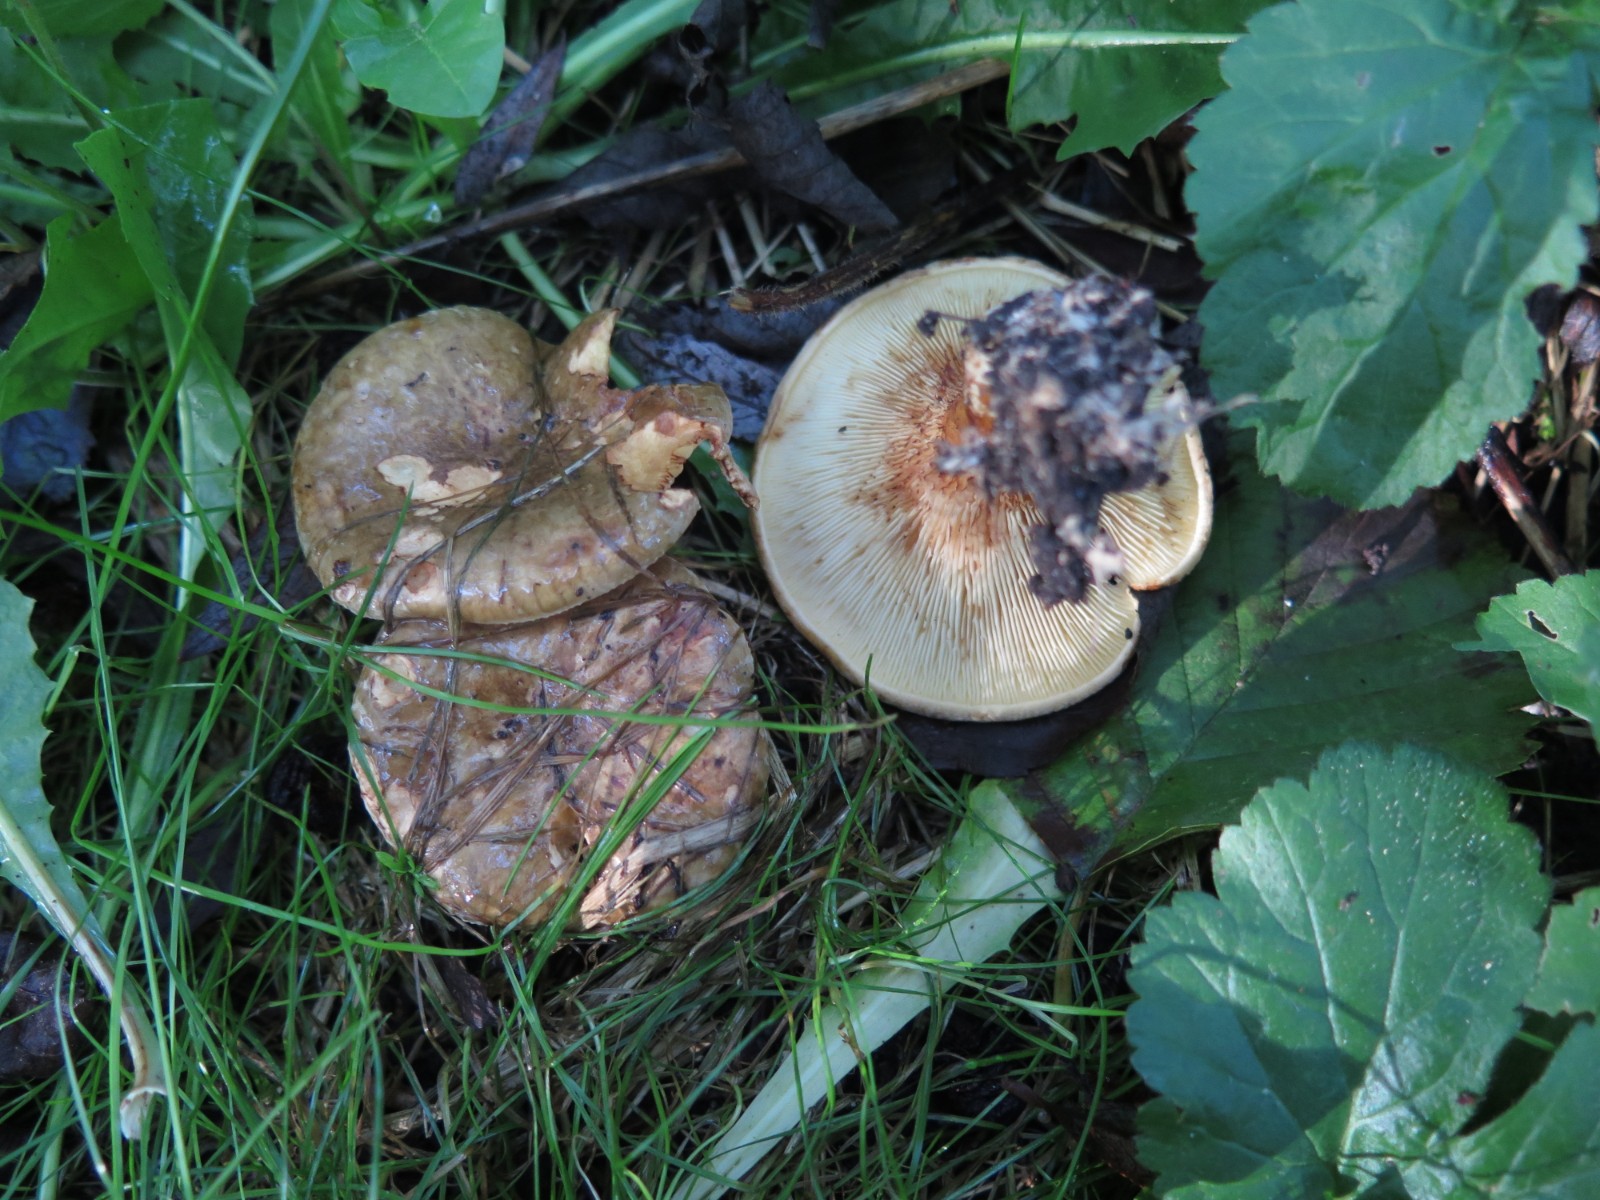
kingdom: Fungi
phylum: Basidiomycota
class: Agaricomycetes
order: Boletales
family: Paxillaceae
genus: Paxillus
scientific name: Paxillus rubicundulus
